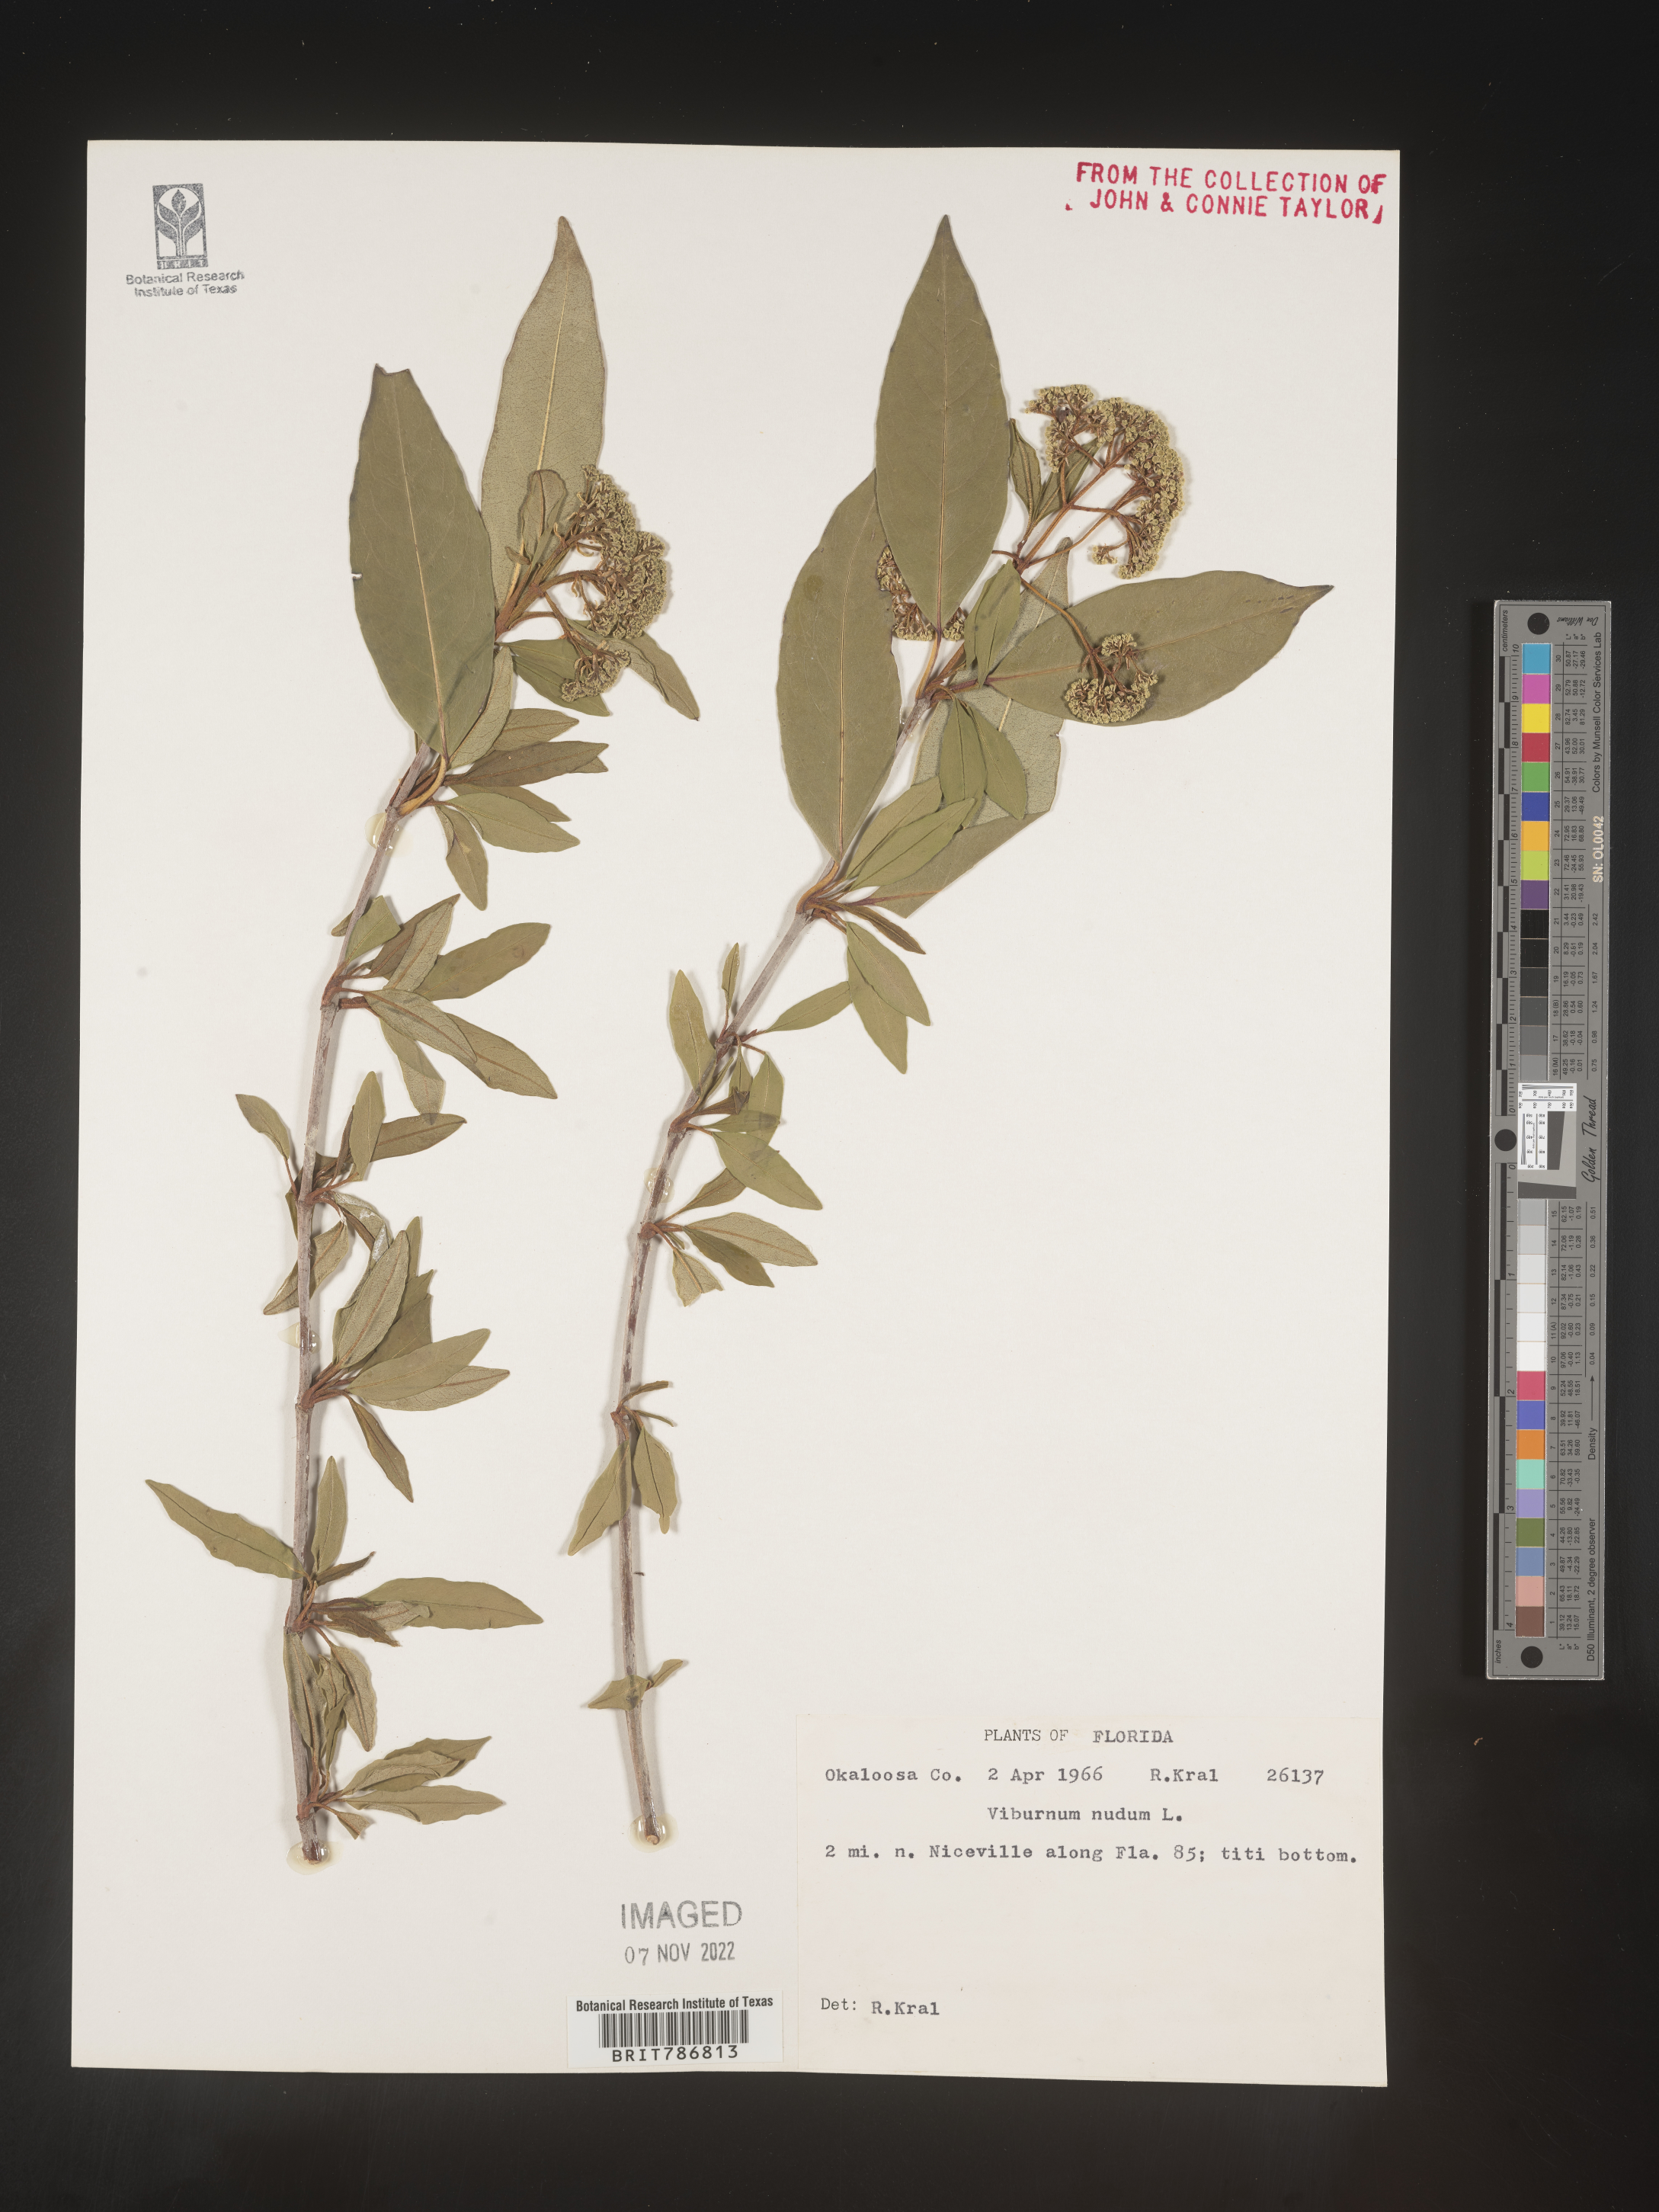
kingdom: Plantae
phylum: Tracheophyta
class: Magnoliopsida
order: Dipsacales
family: Viburnaceae
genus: Viburnum
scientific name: Viburnum nudum
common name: Possum haw
